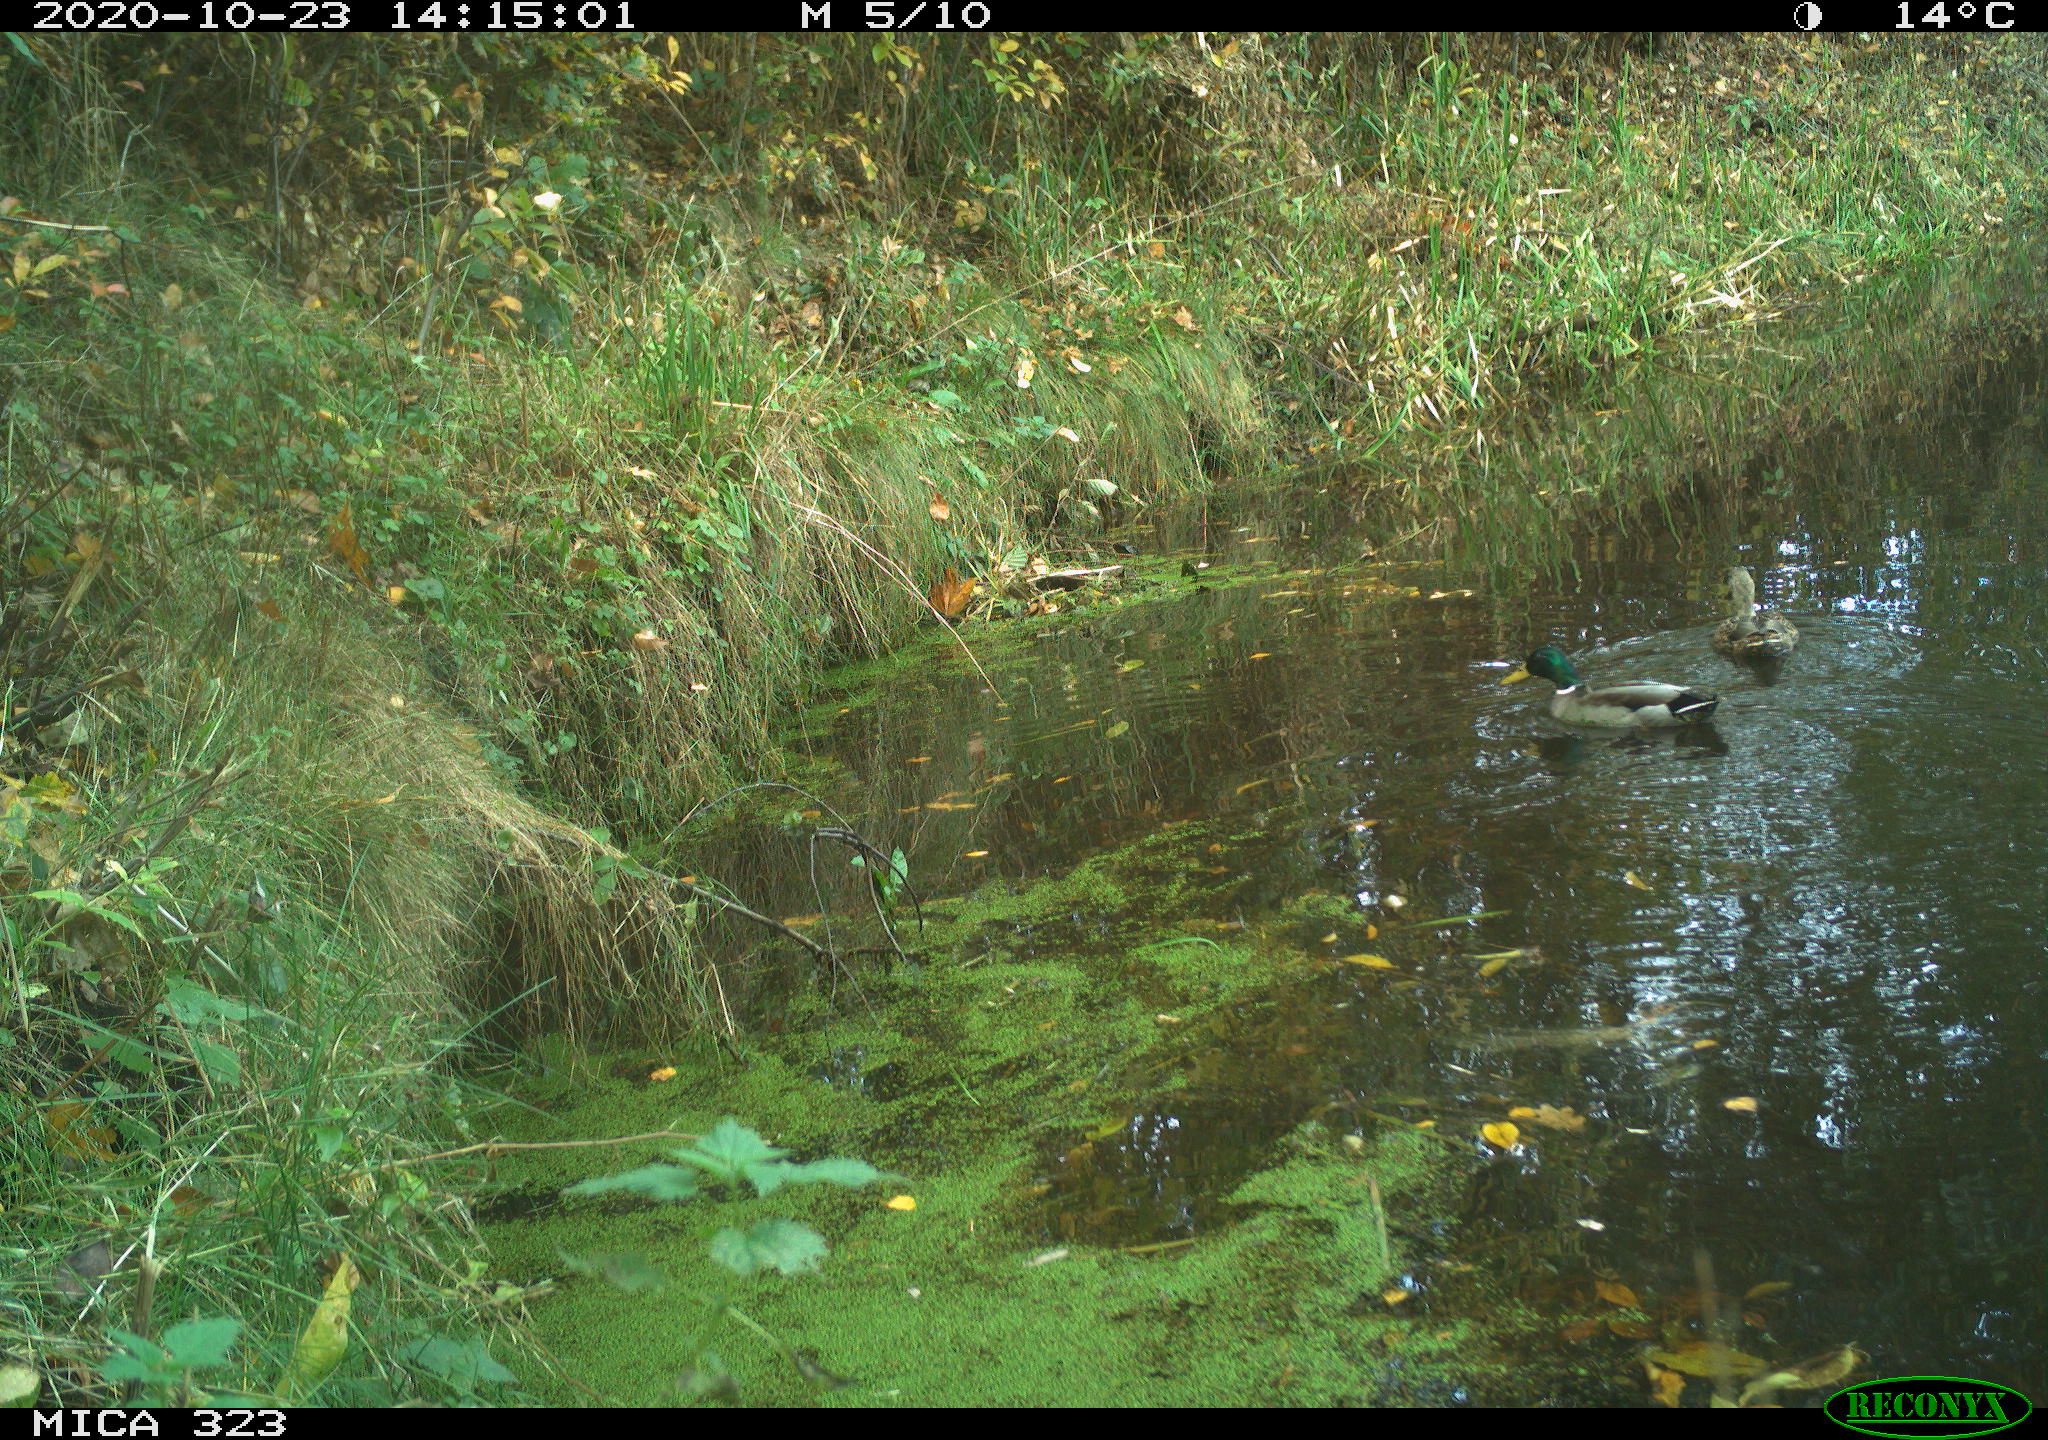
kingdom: Animalia
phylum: Chordata
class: Aves
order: Anseriformes
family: Anatidae
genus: Anas
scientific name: Anas platyrhynchos
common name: Mallard
